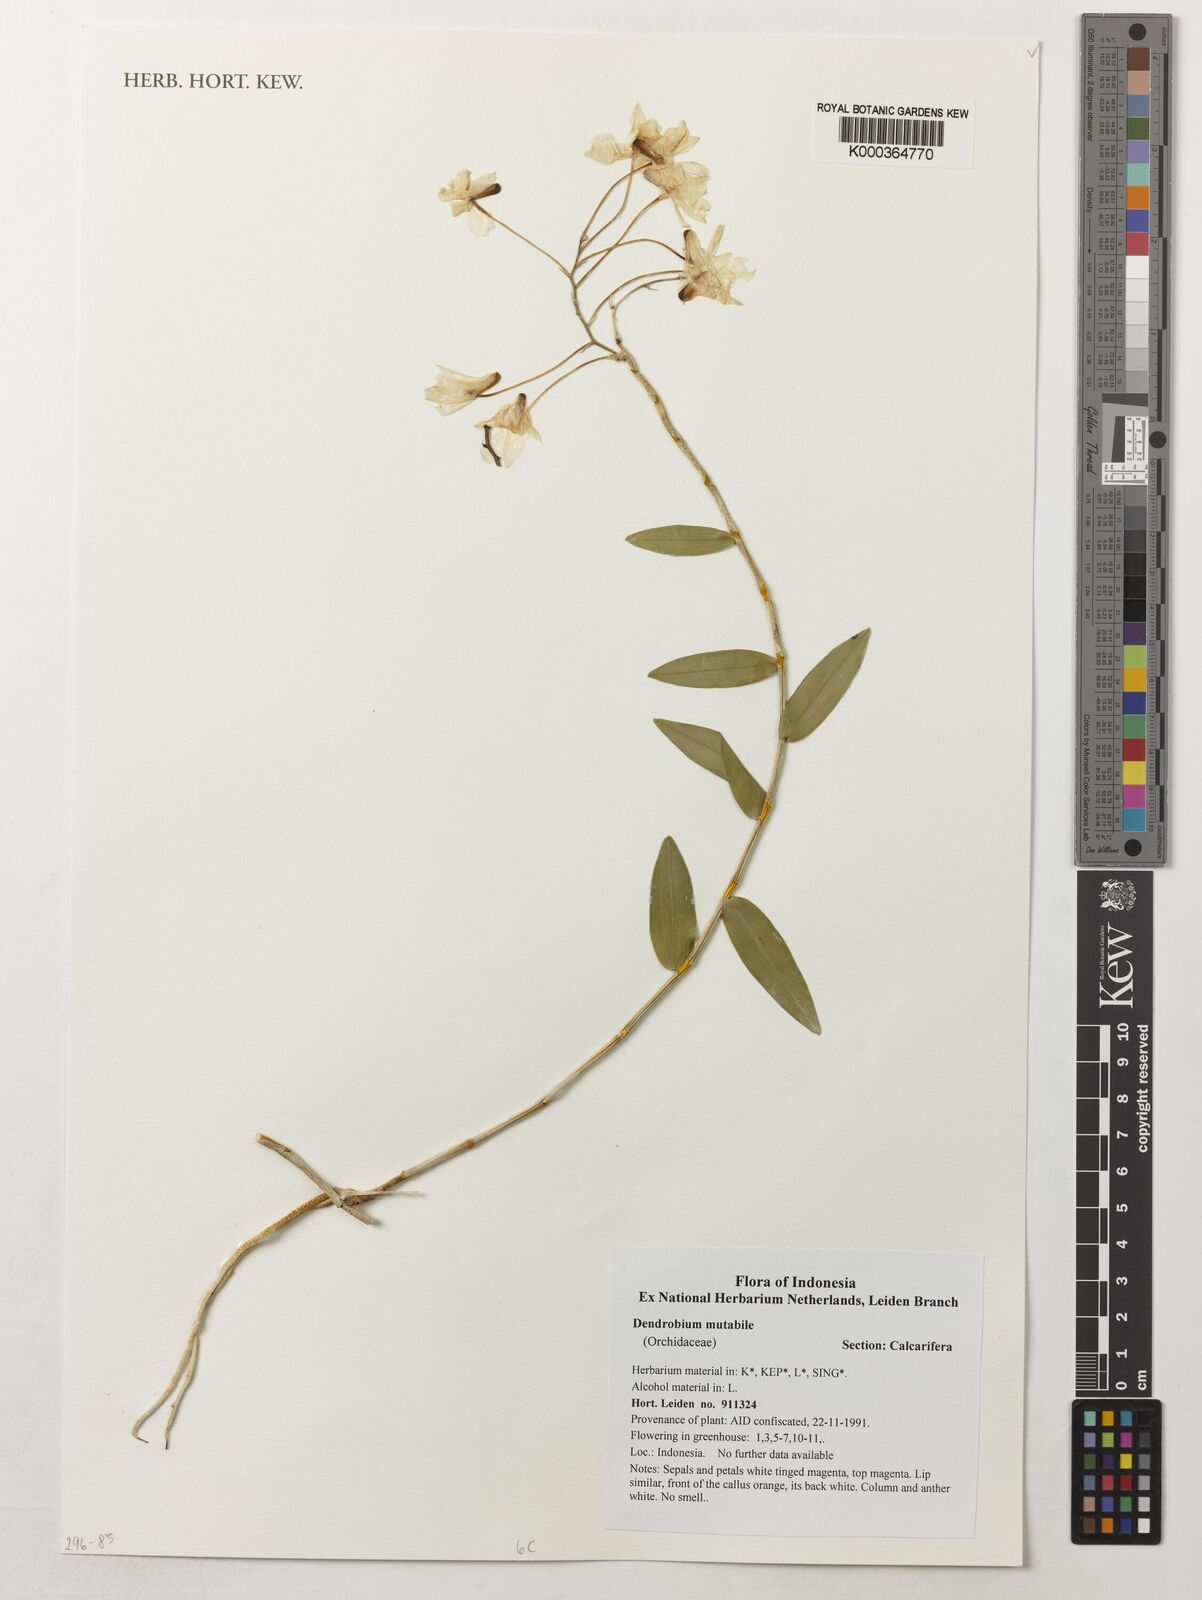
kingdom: Plantae
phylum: Tracheophyta
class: Liliopsida
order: Asparagales
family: Orchidaceae
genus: Dendrobium
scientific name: Dendrobium mutabile
